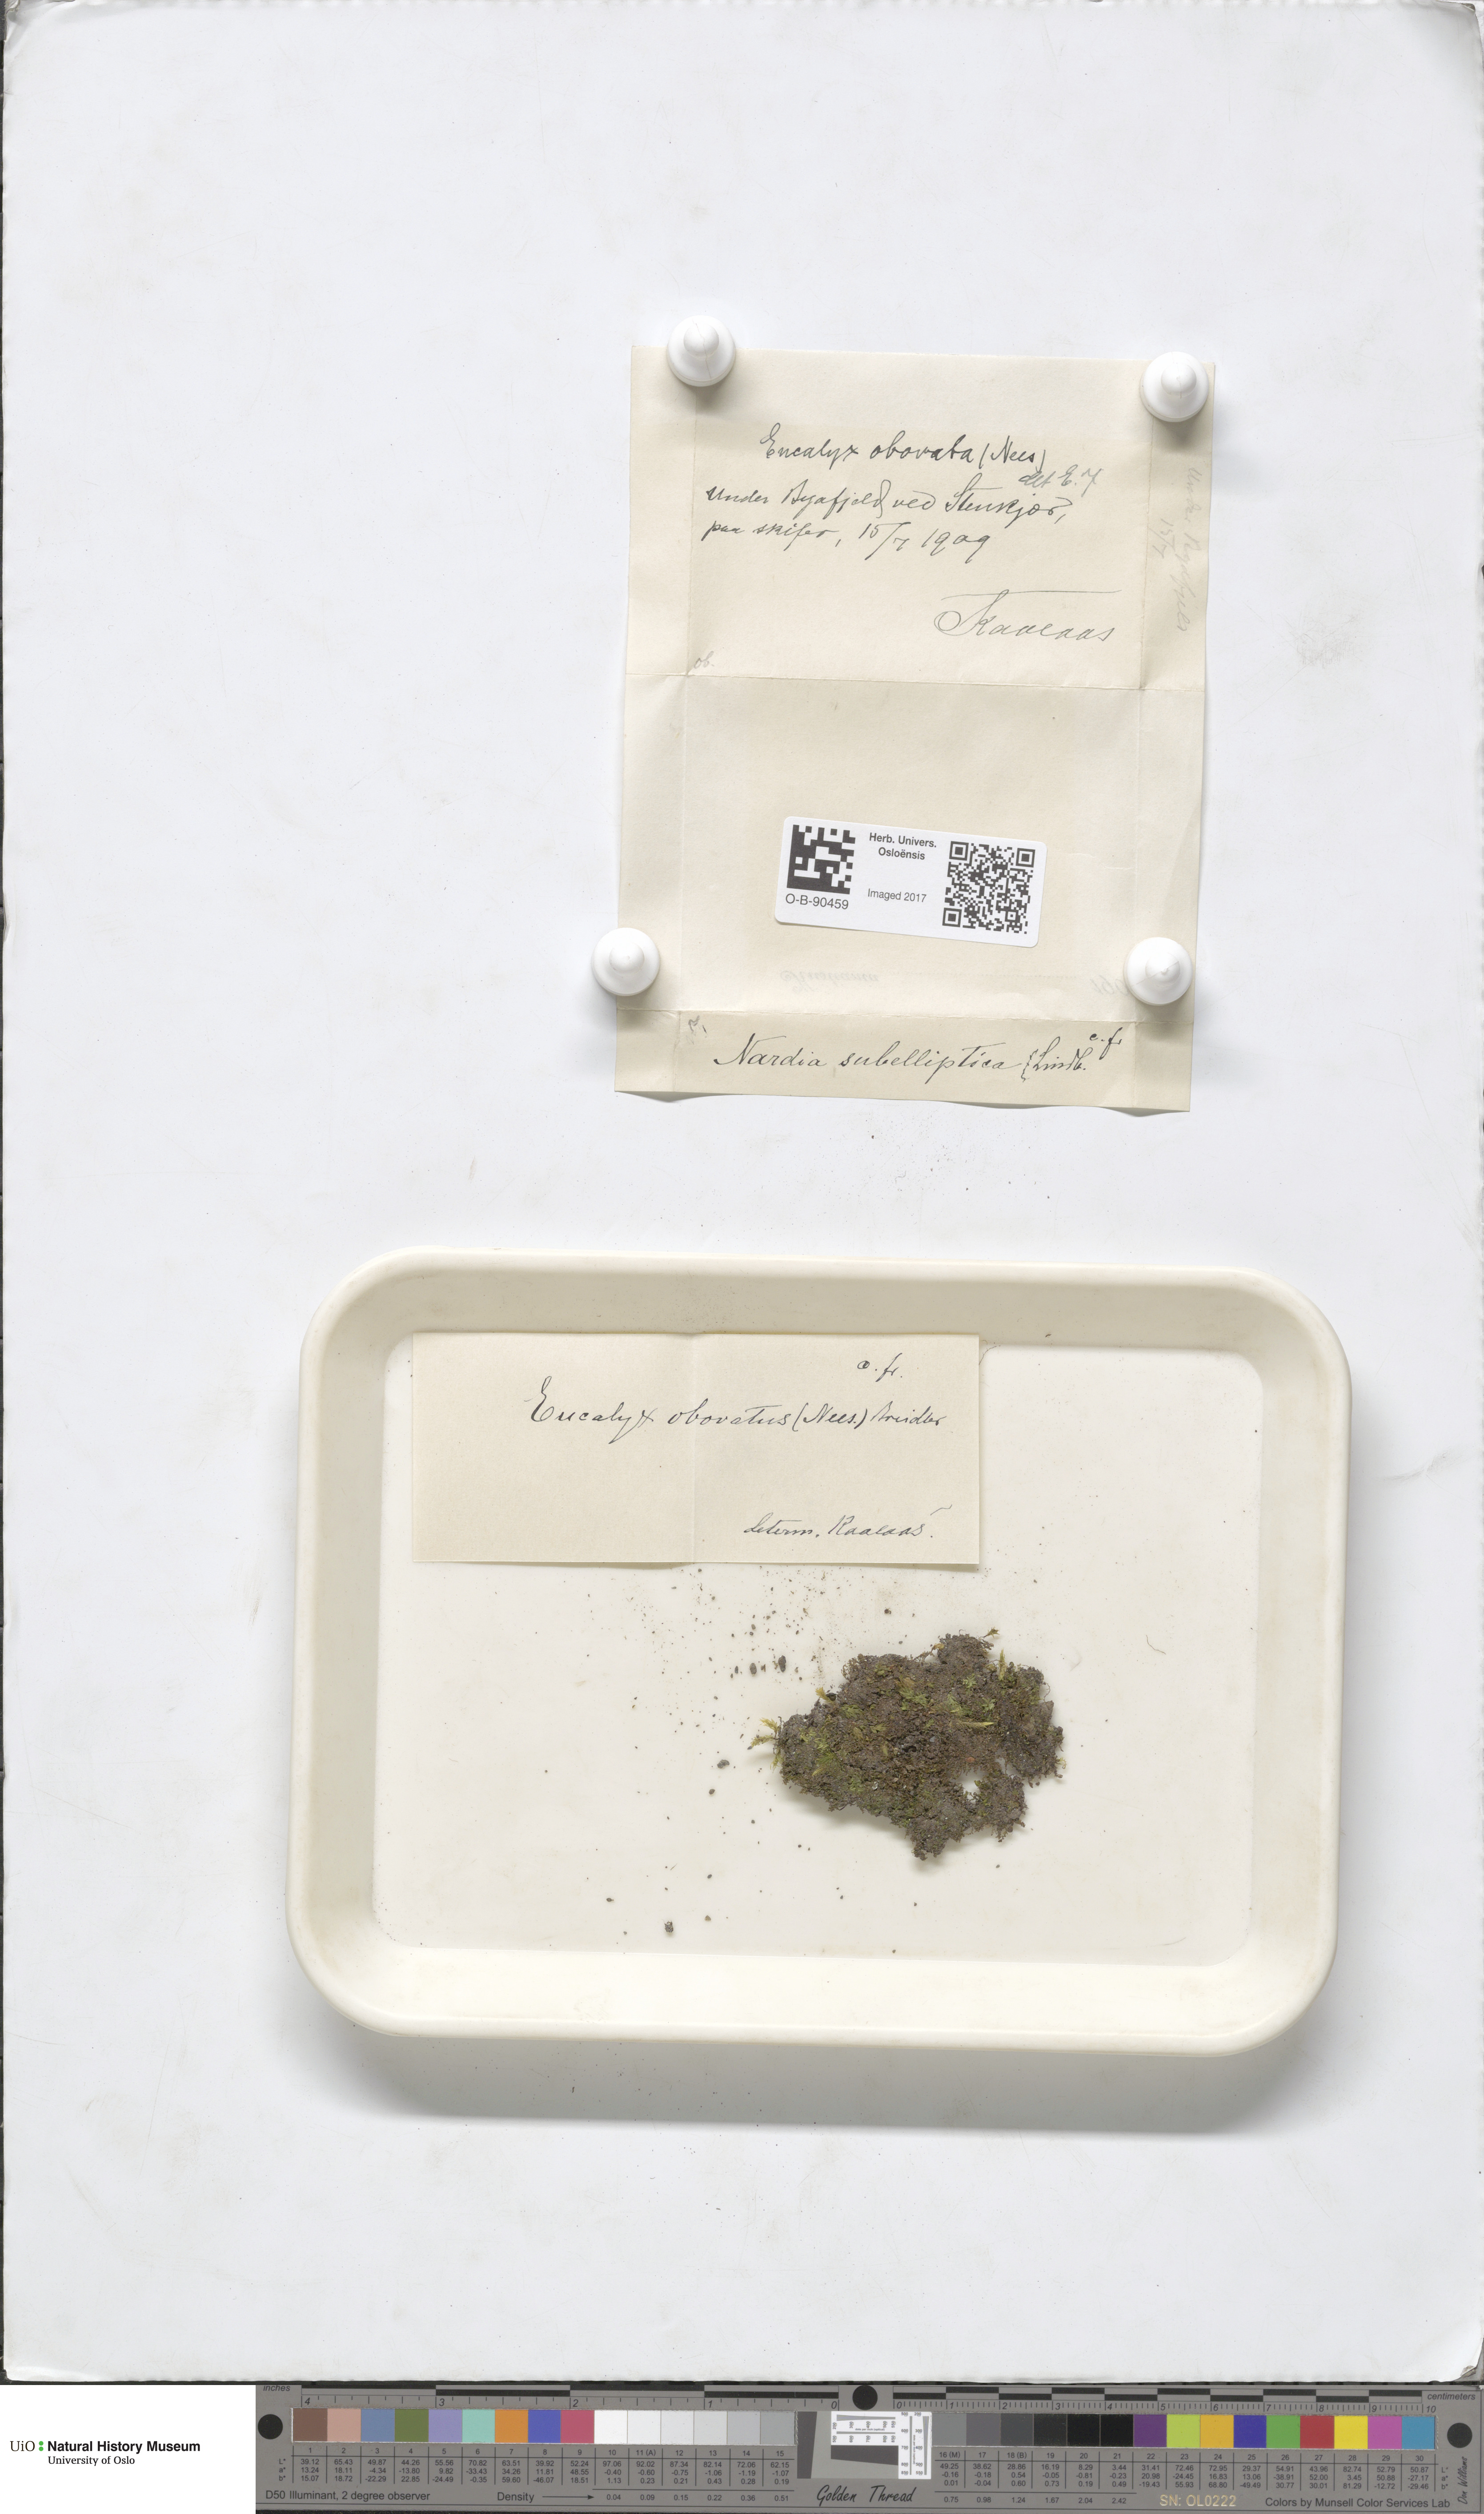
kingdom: Plantae
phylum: Marchantiophyta
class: Jungermanniopsida
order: Jungermanniales
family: Solenostomataceae
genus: Solenostoma
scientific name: Solenostoma obovatum
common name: Egg flapwort
